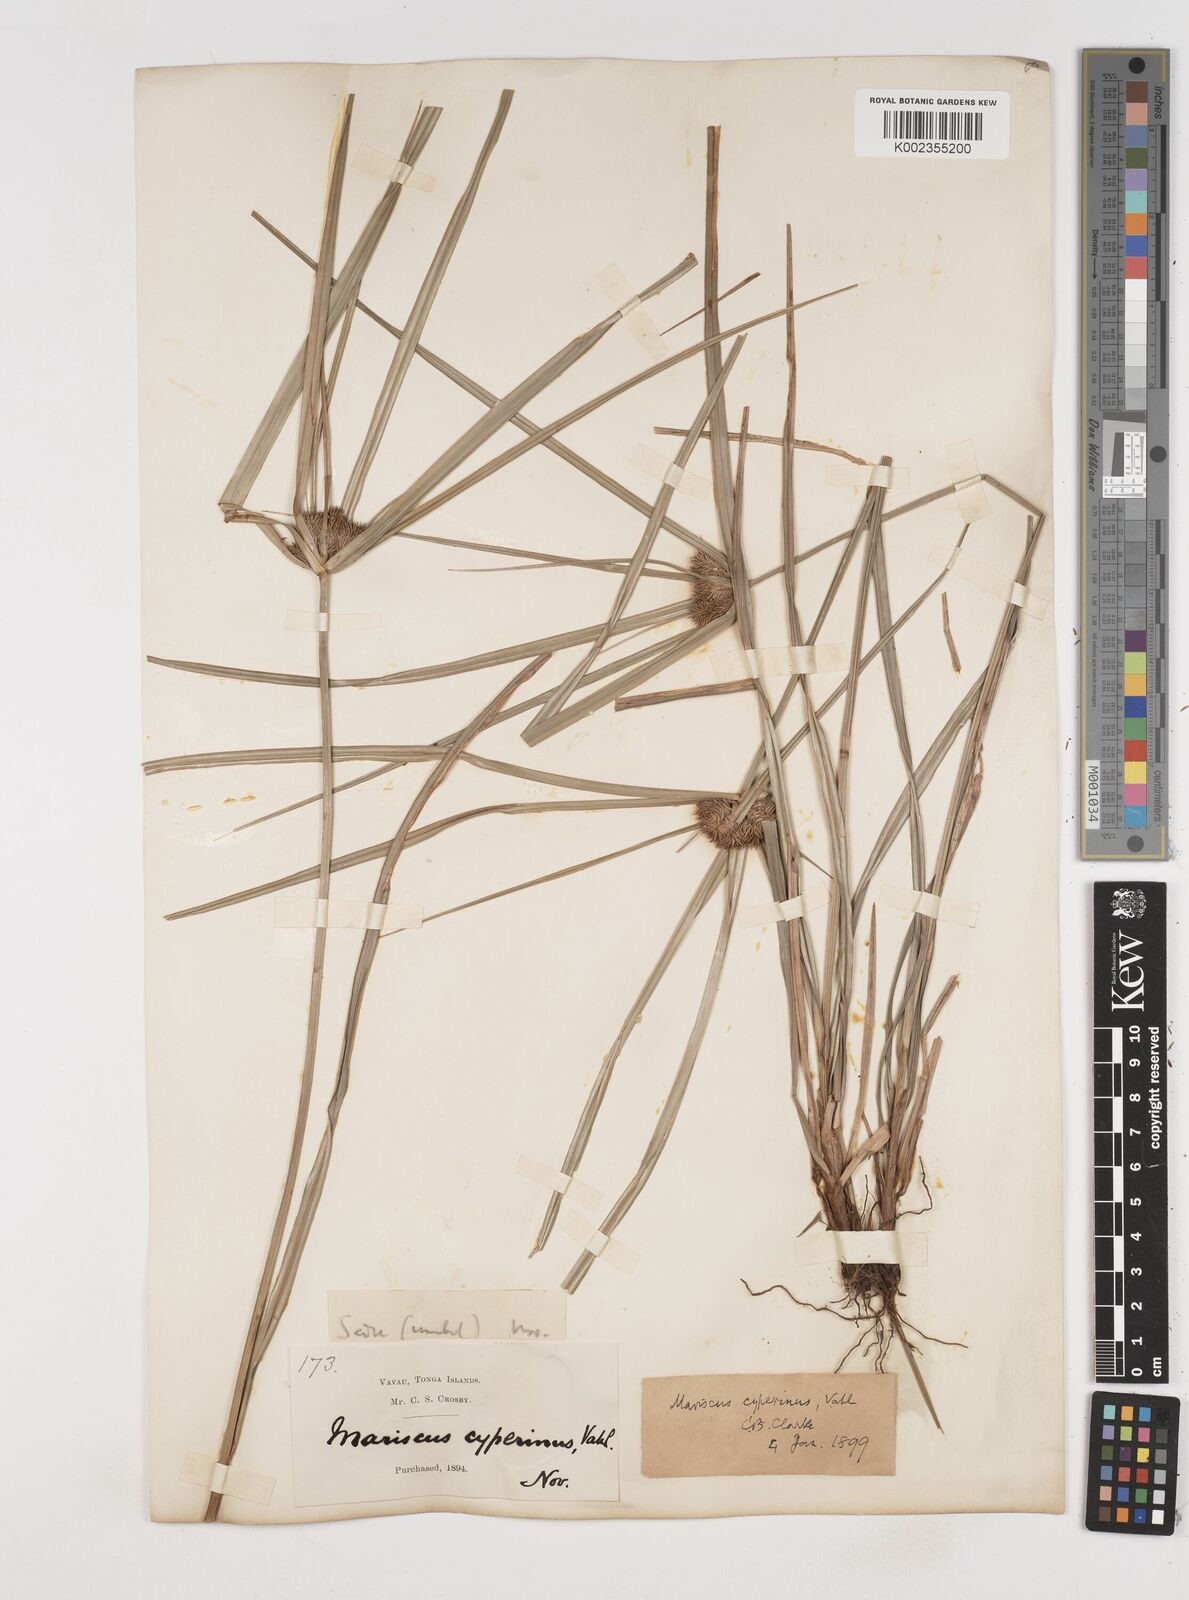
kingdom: Plantae
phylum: Tracheophyta
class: Liliopsida
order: Poales
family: Cyperaceae
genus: Cyperus
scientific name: Cyperus cyperinus
